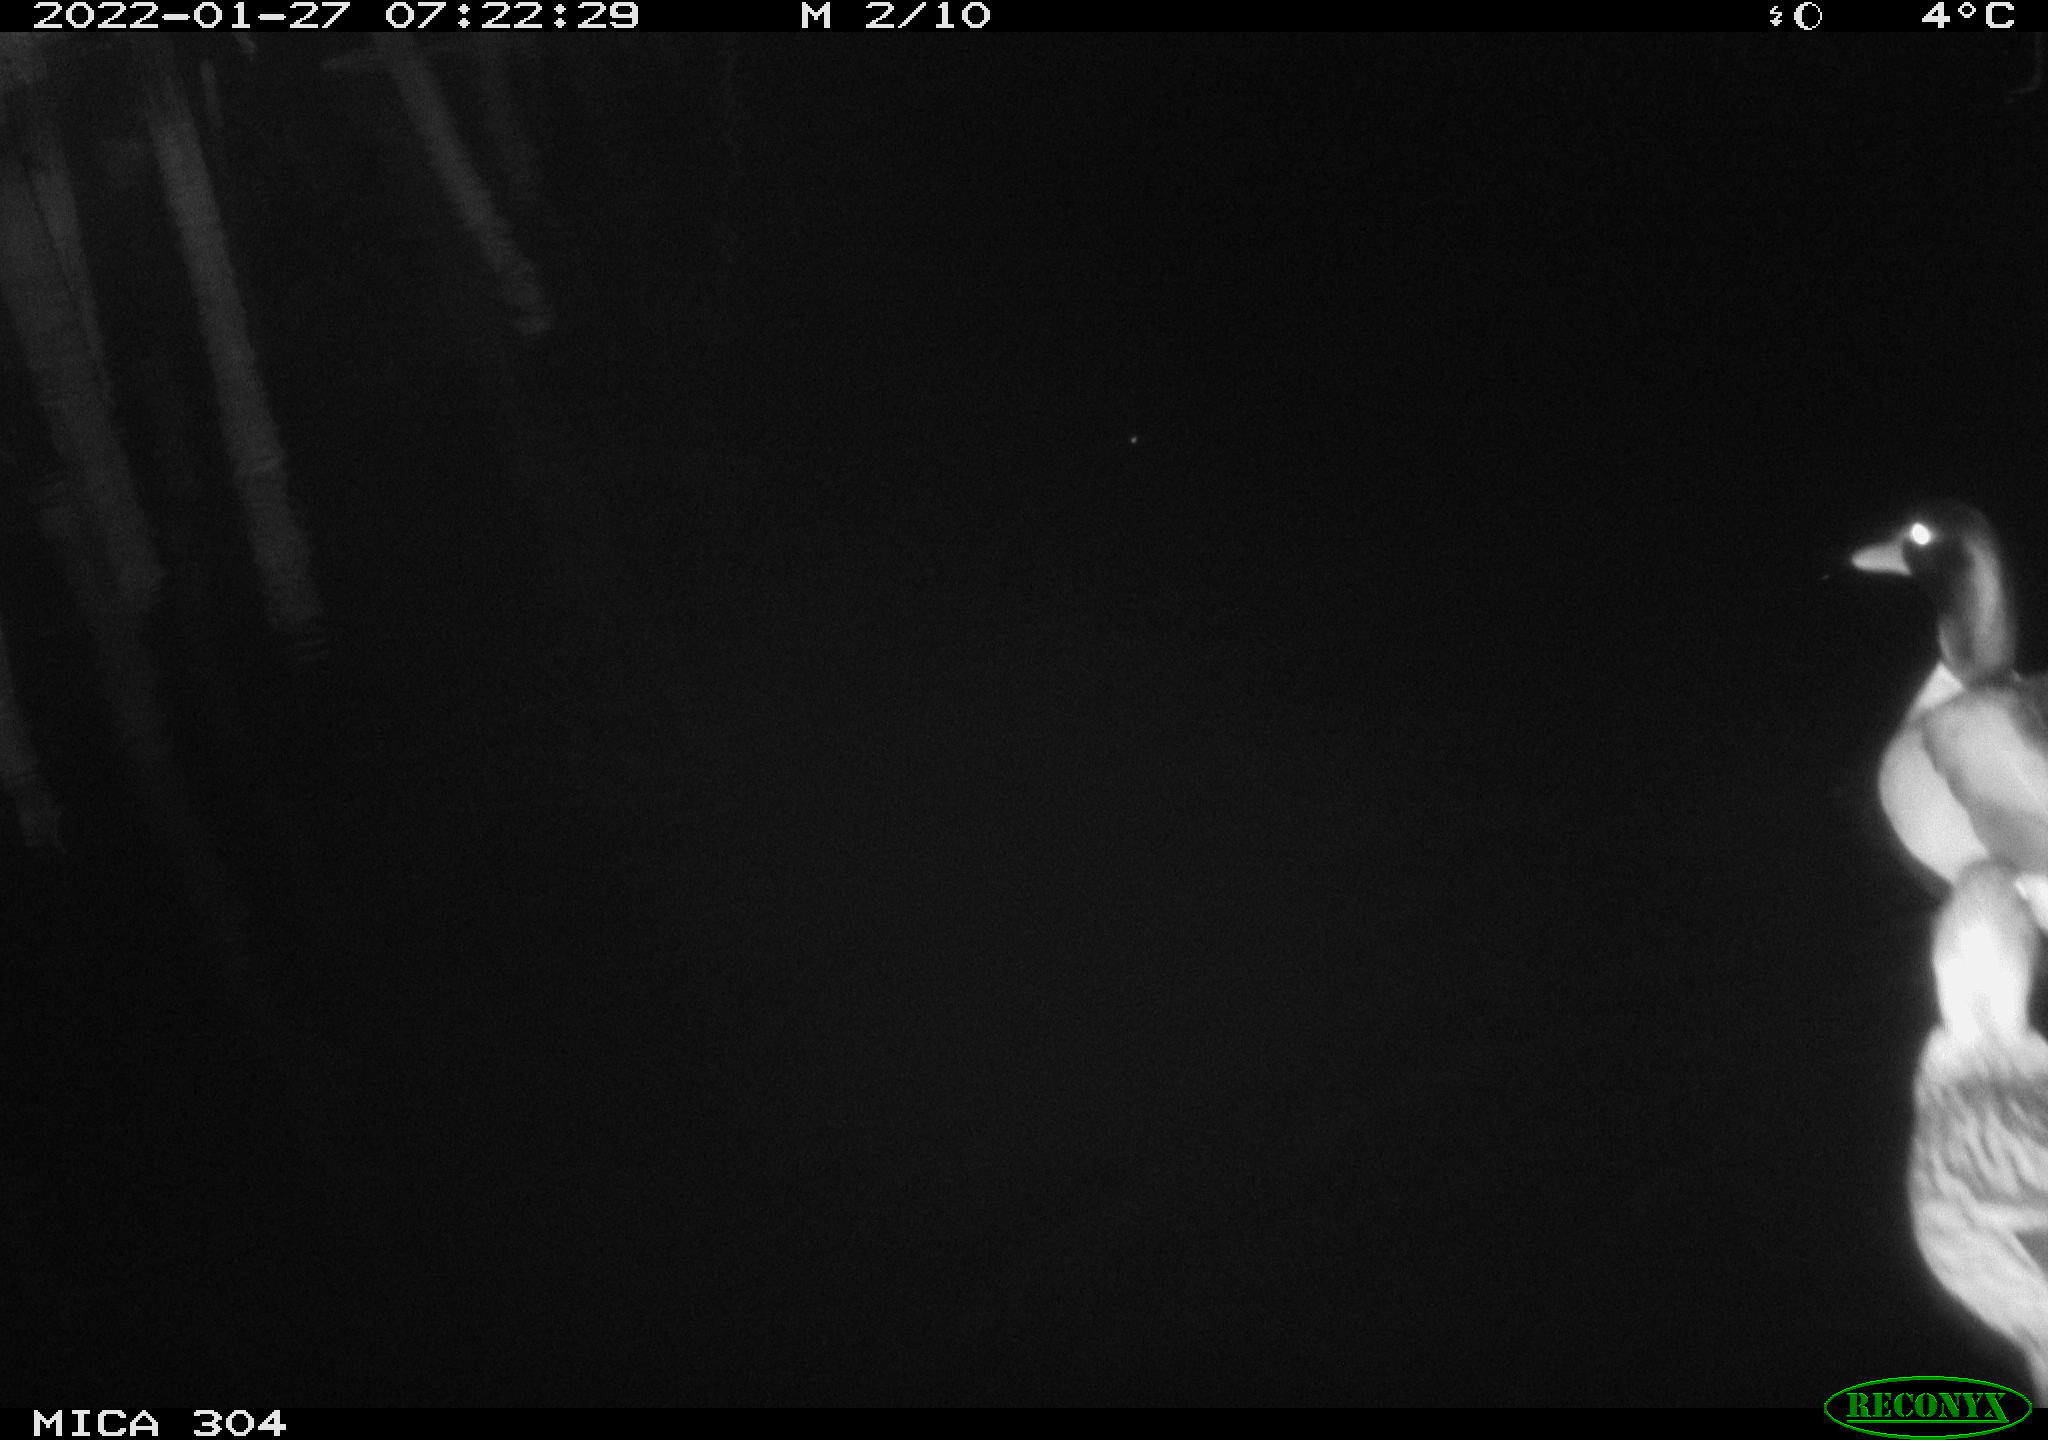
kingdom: Animalia
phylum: Chordata
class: Aves
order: Anseriformes
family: Anatidae
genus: Anas
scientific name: Anas
